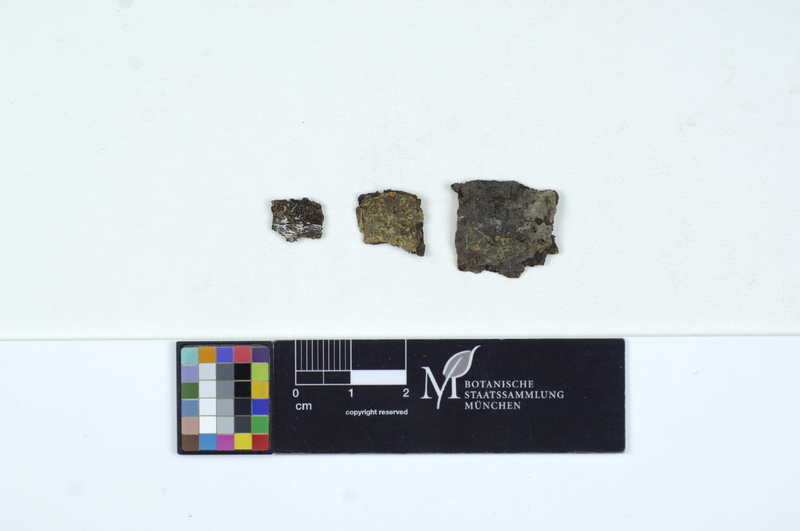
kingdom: Fungi
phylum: Basidiomycota
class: Agaricomycetes
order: Sebacinales
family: Sebacinaceae
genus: Sebacina
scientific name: Sebacina dimitica
